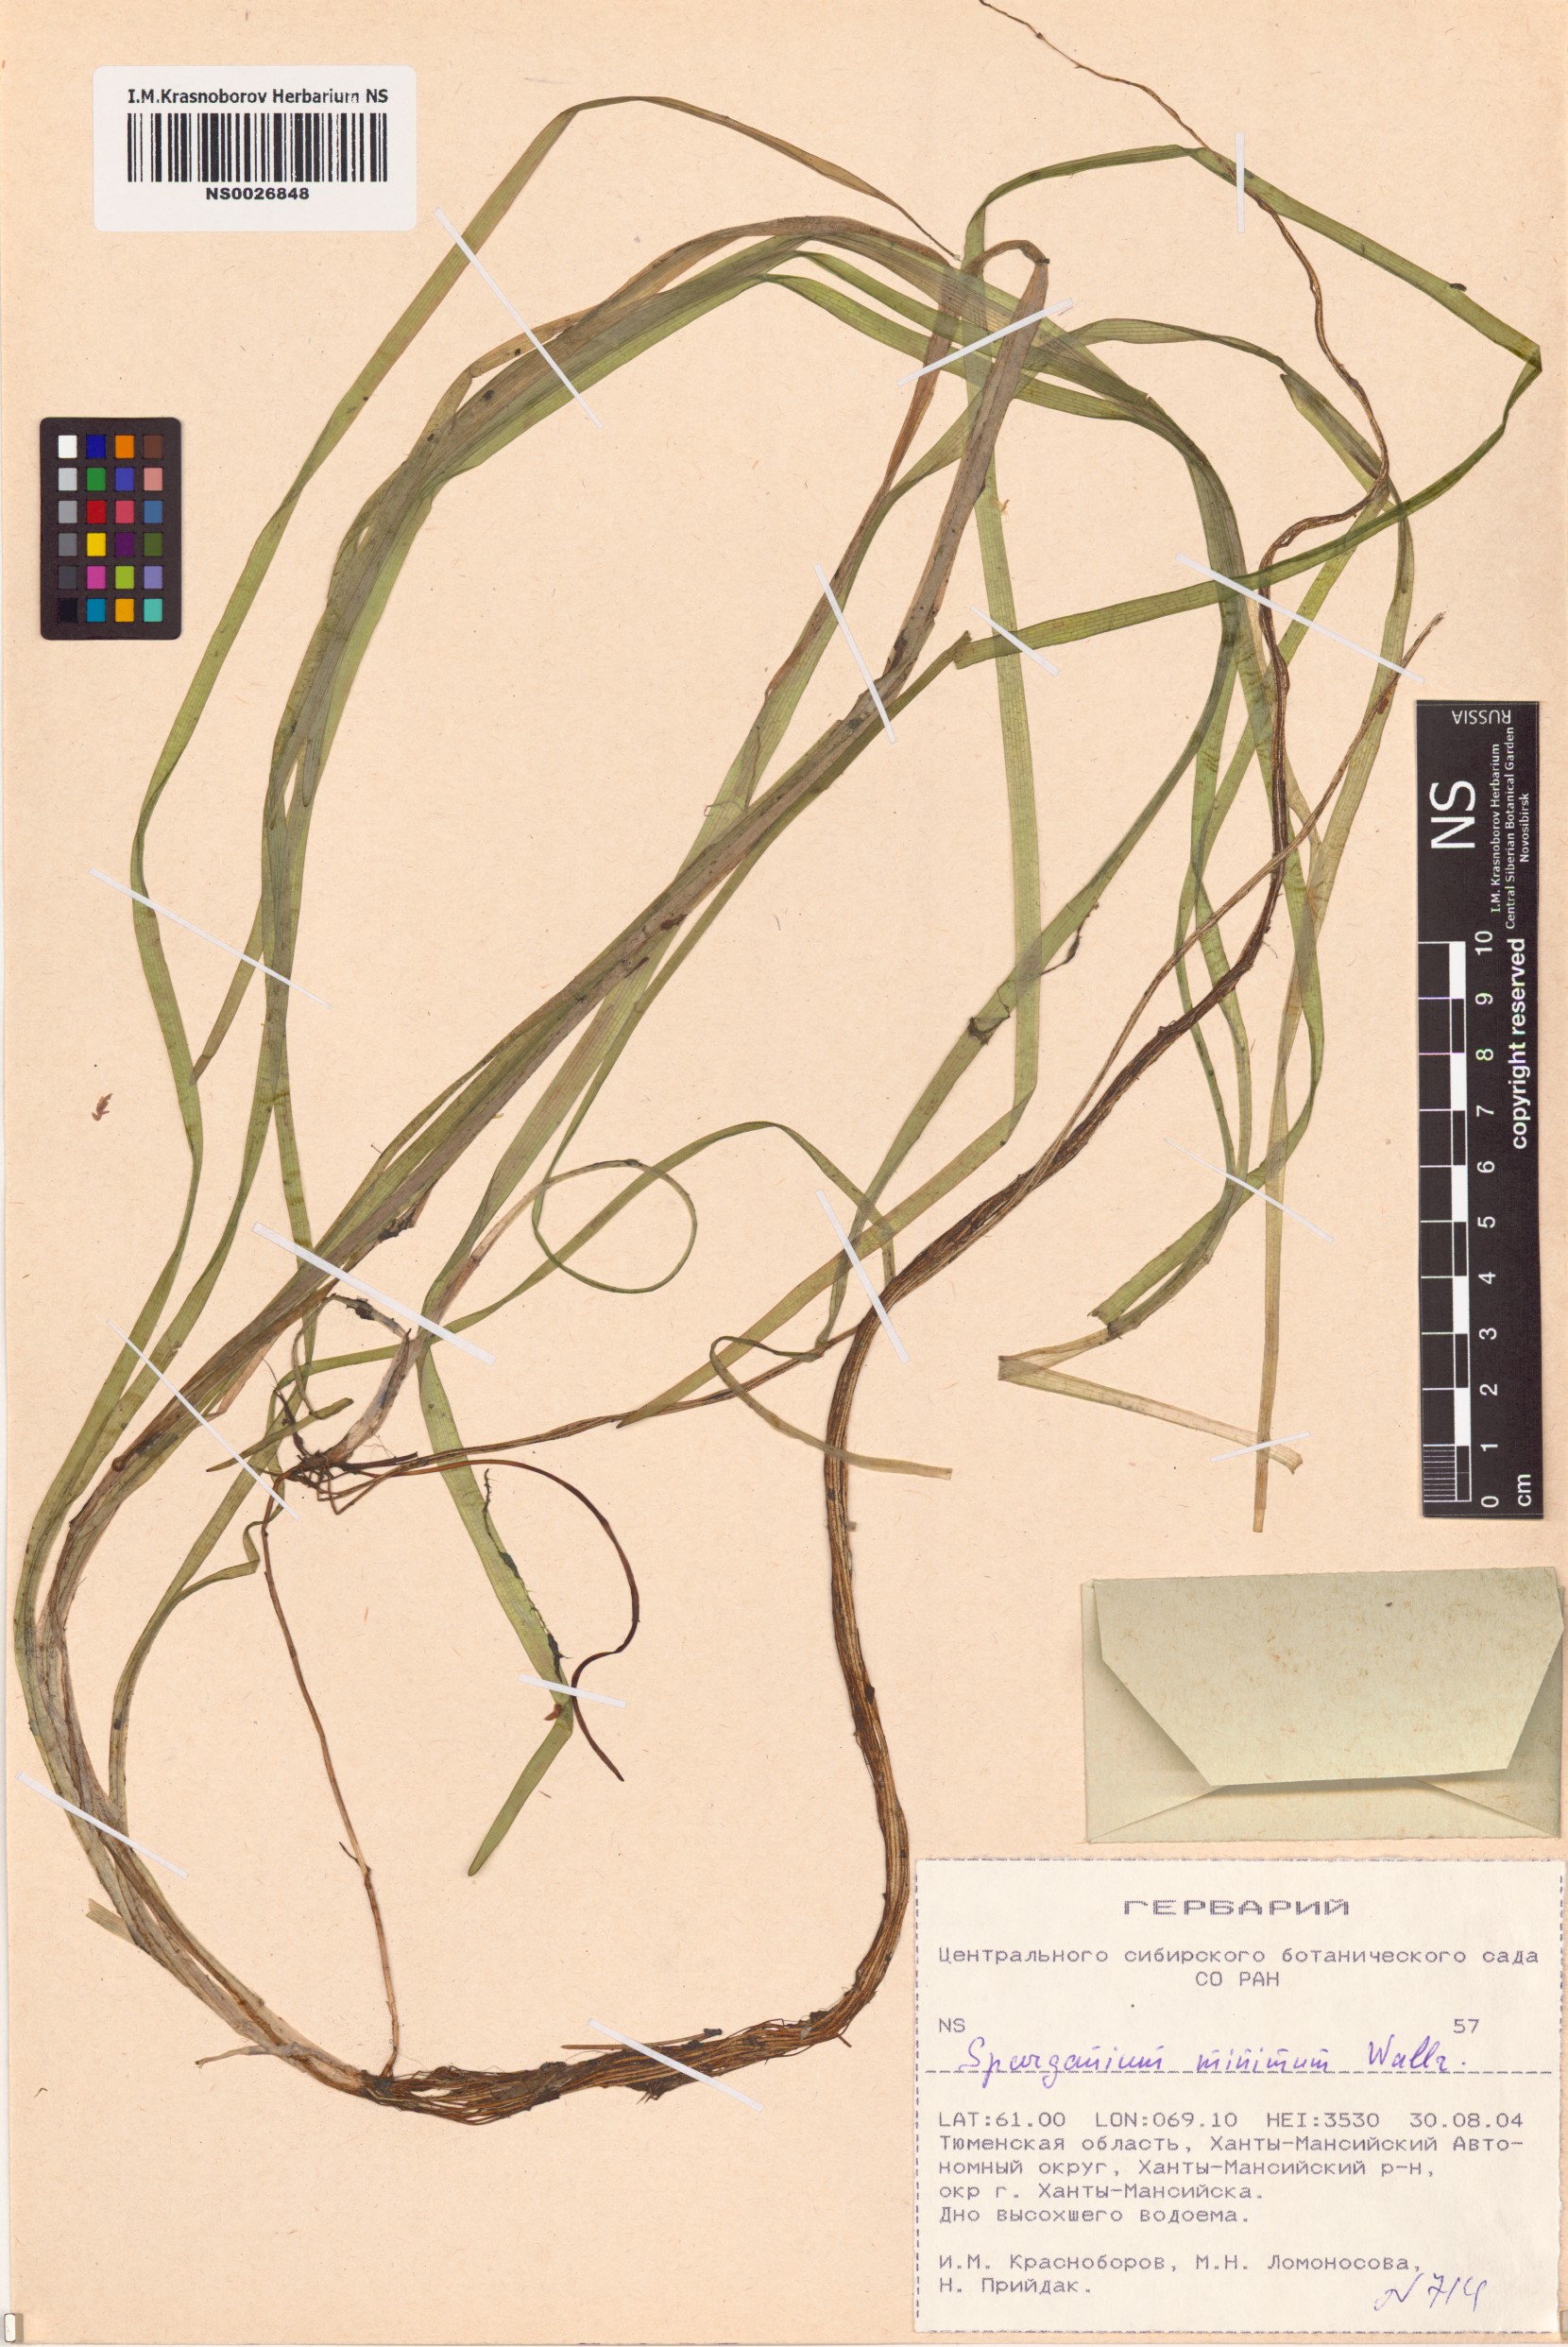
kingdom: Plantae
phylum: Tracheophyta
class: Liliopsida
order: Poales
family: Typhaceae
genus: Sparganium
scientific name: Sparganium natans
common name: Least bur-reed
